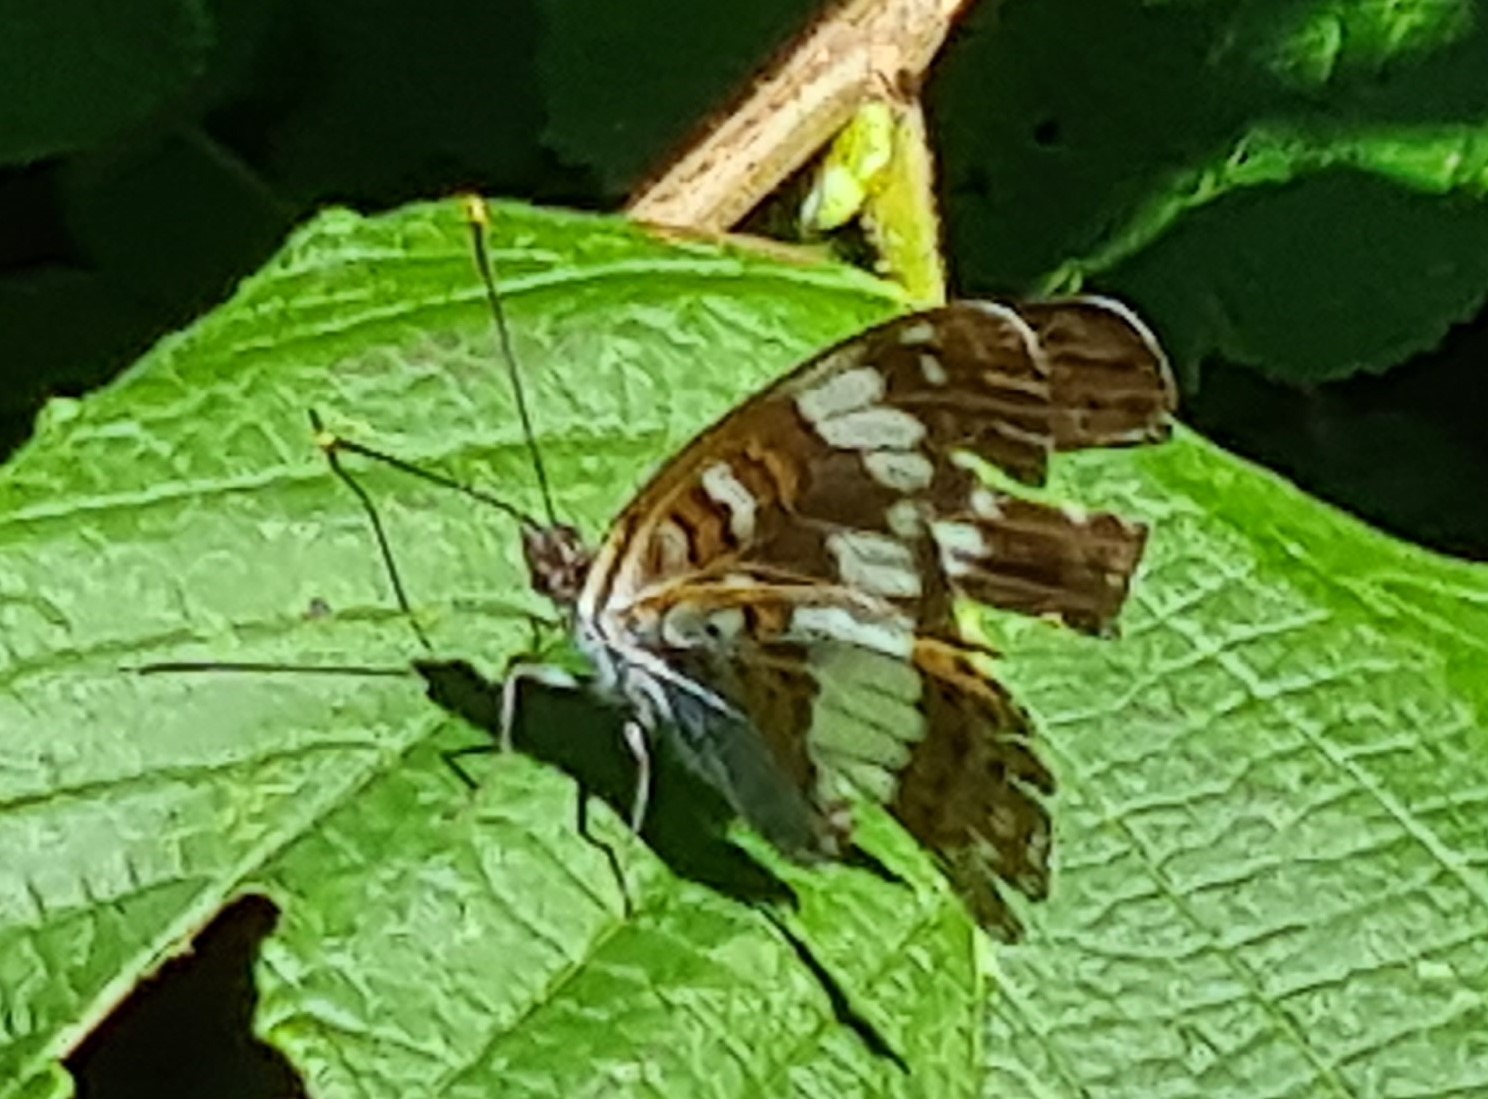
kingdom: Animalia
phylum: Arthropoda
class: Insecta
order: Lepidoptera
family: Nymphalidae
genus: Ladoga
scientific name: Ladoga camilla
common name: Hvid admiral
